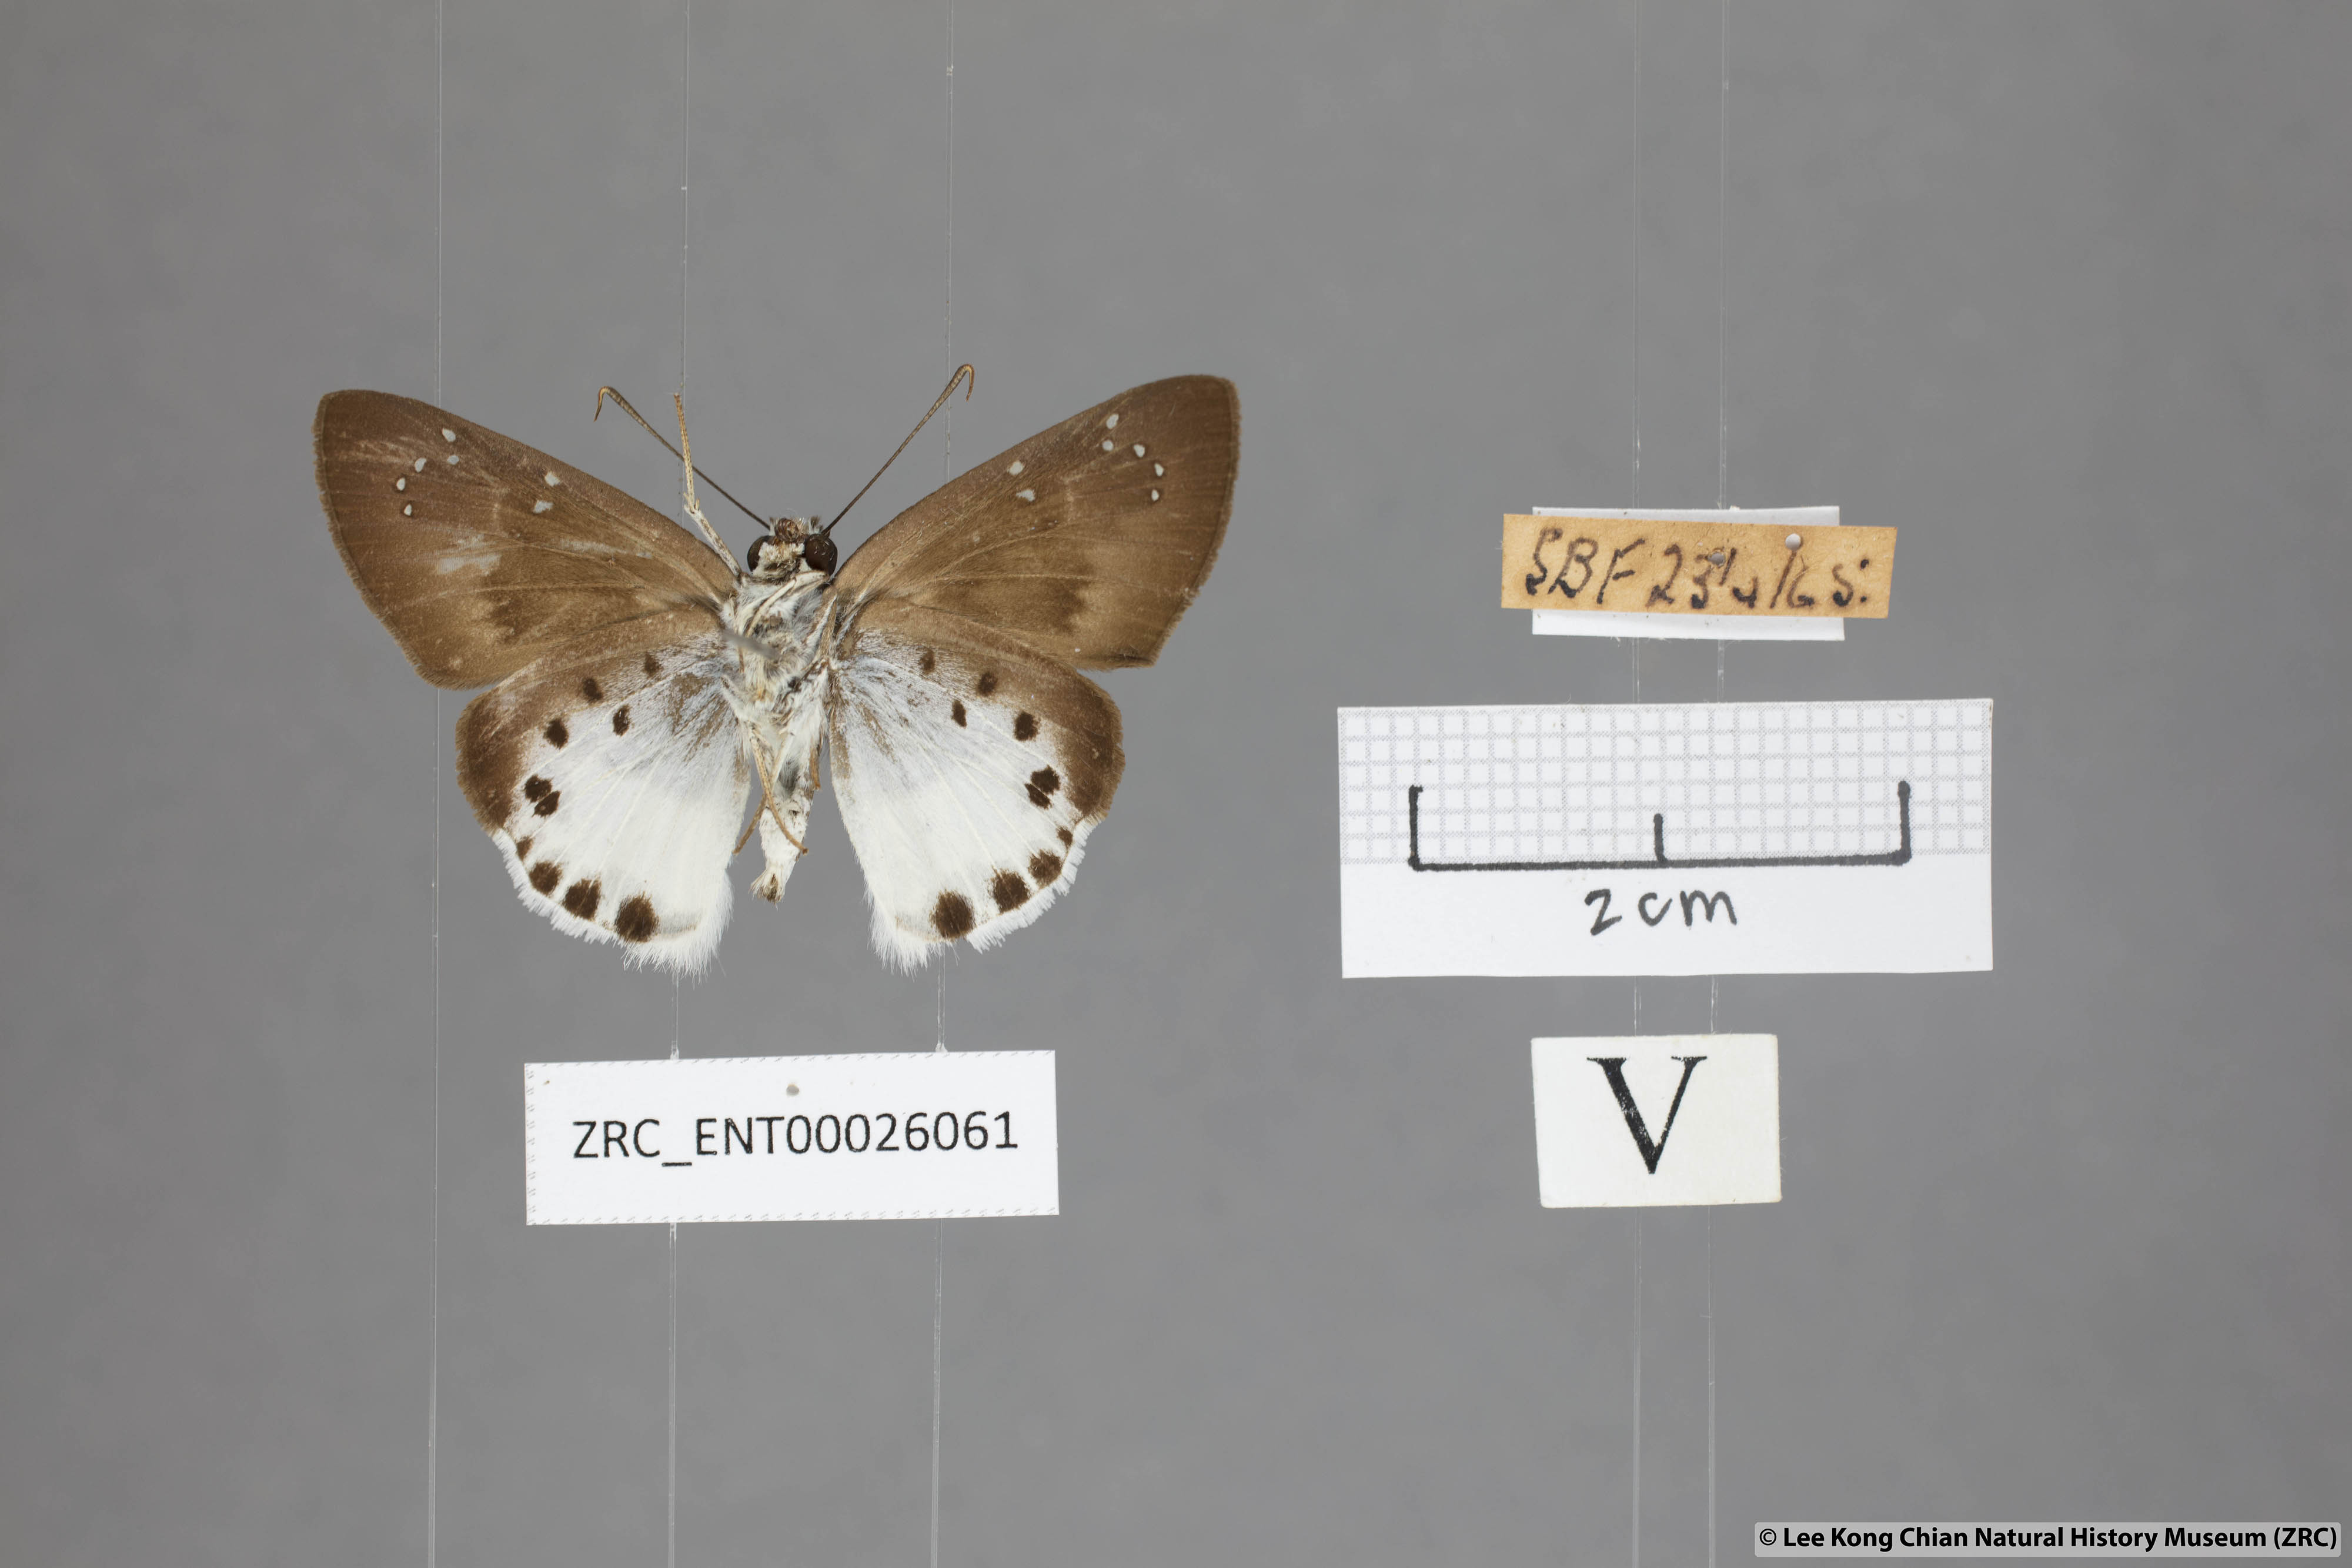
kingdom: Animalia
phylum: Arthropoda
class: Insecta
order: Lepidoptera
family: Hesperiidae
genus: Tagiades
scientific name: Tagiades litigiosa
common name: Water snow flat
